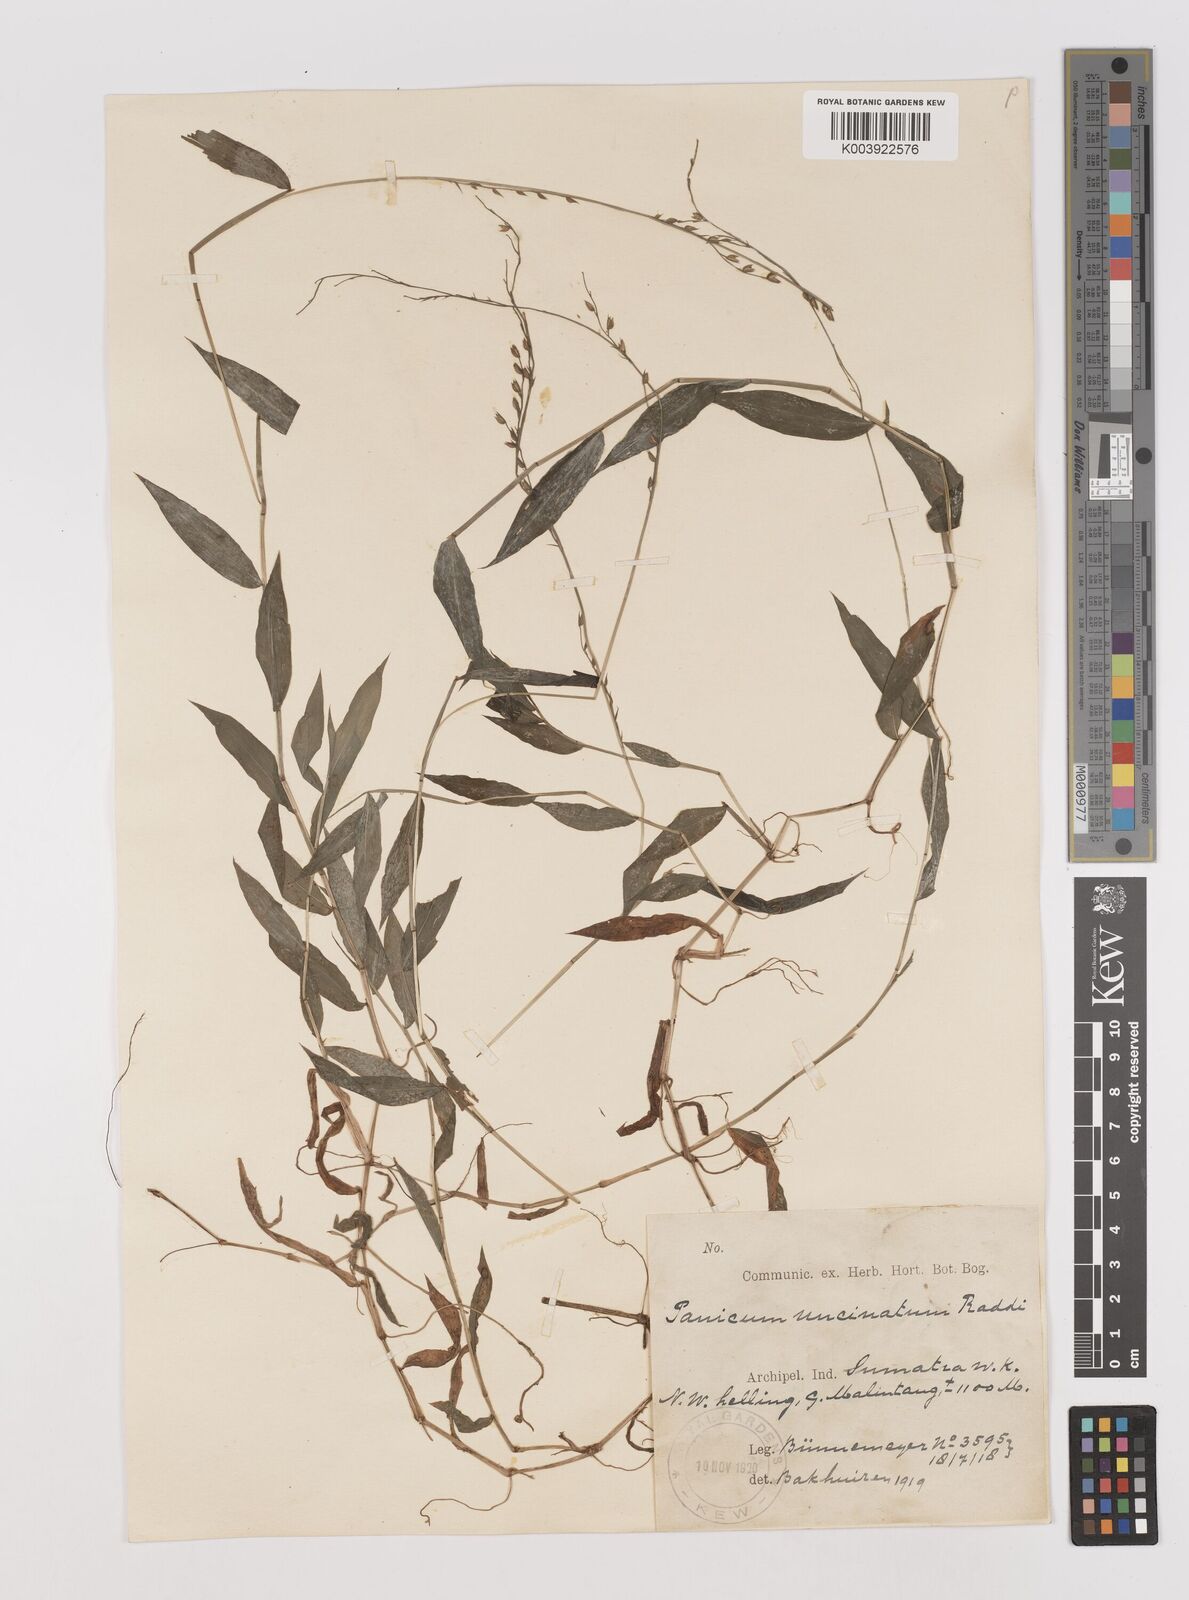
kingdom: Plantae
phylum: Tracheophyta
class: Liliopsida
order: Poales
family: Poaceae
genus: Pseudechinolaena
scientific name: Pseudechinolaena polystachya
